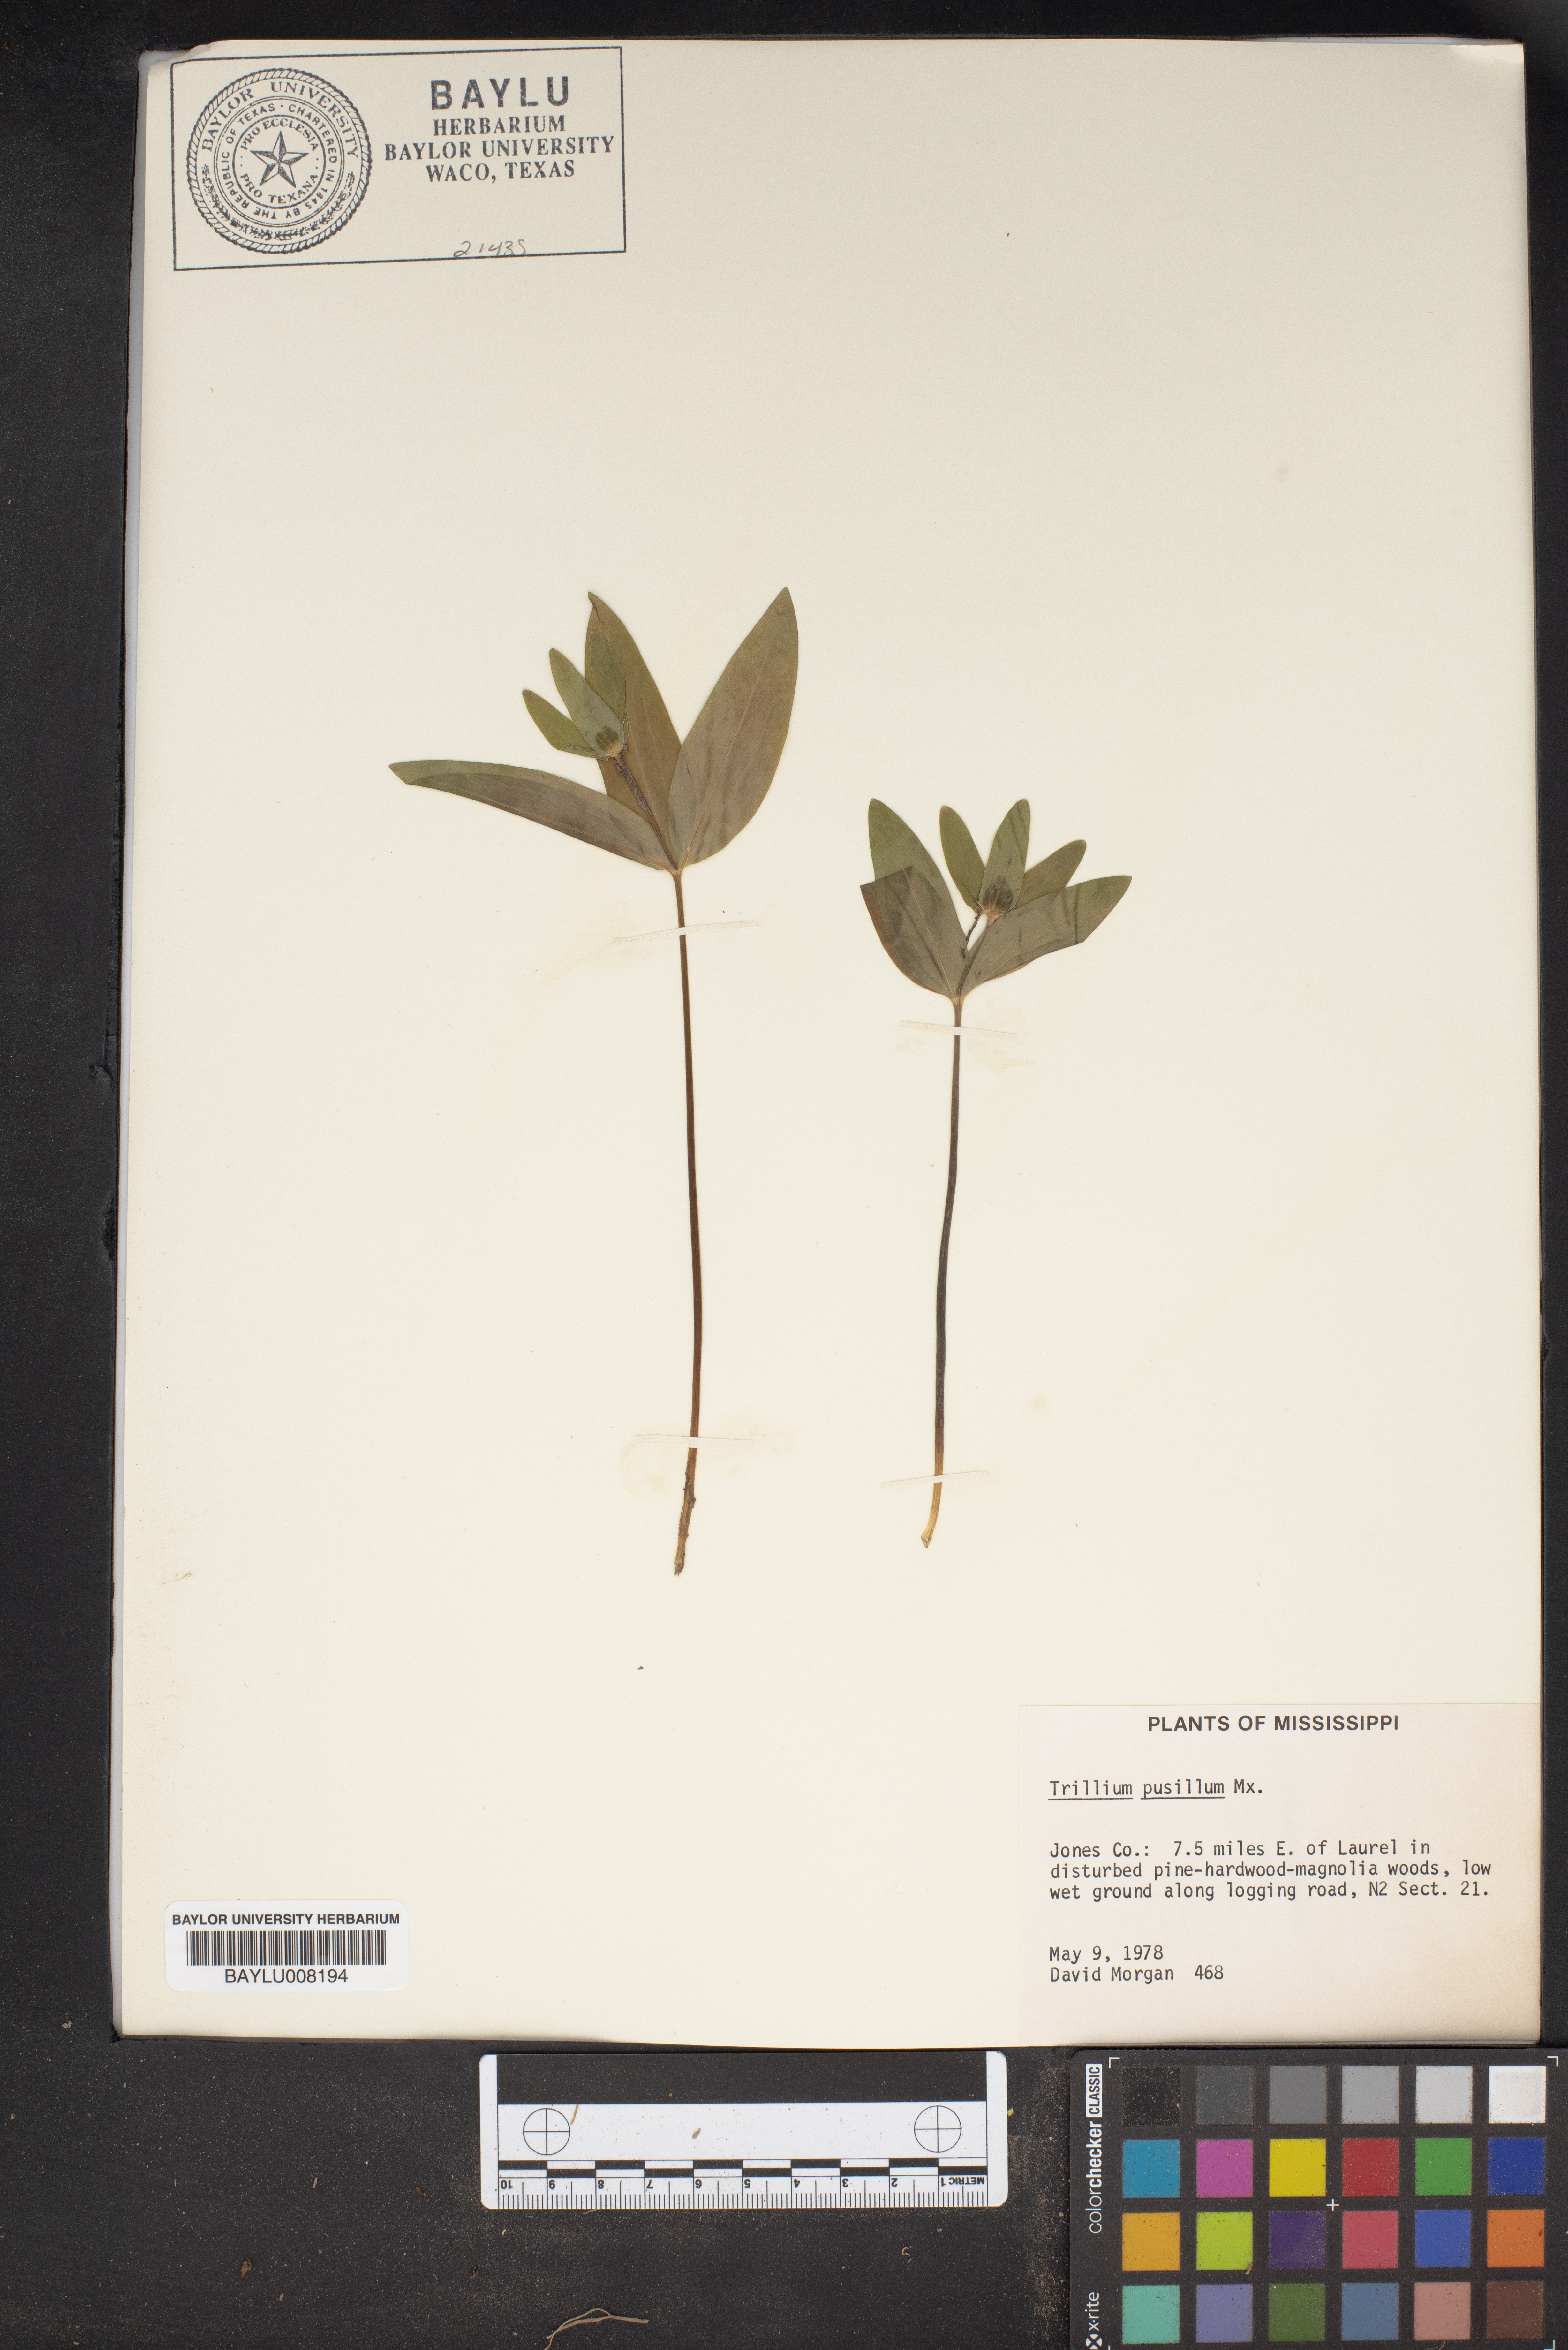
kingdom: Plantae
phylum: Tracheophyta
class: Liliopsida
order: Liliales
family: Melanthiaceae
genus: Trillium
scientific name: Trillium pusillum
